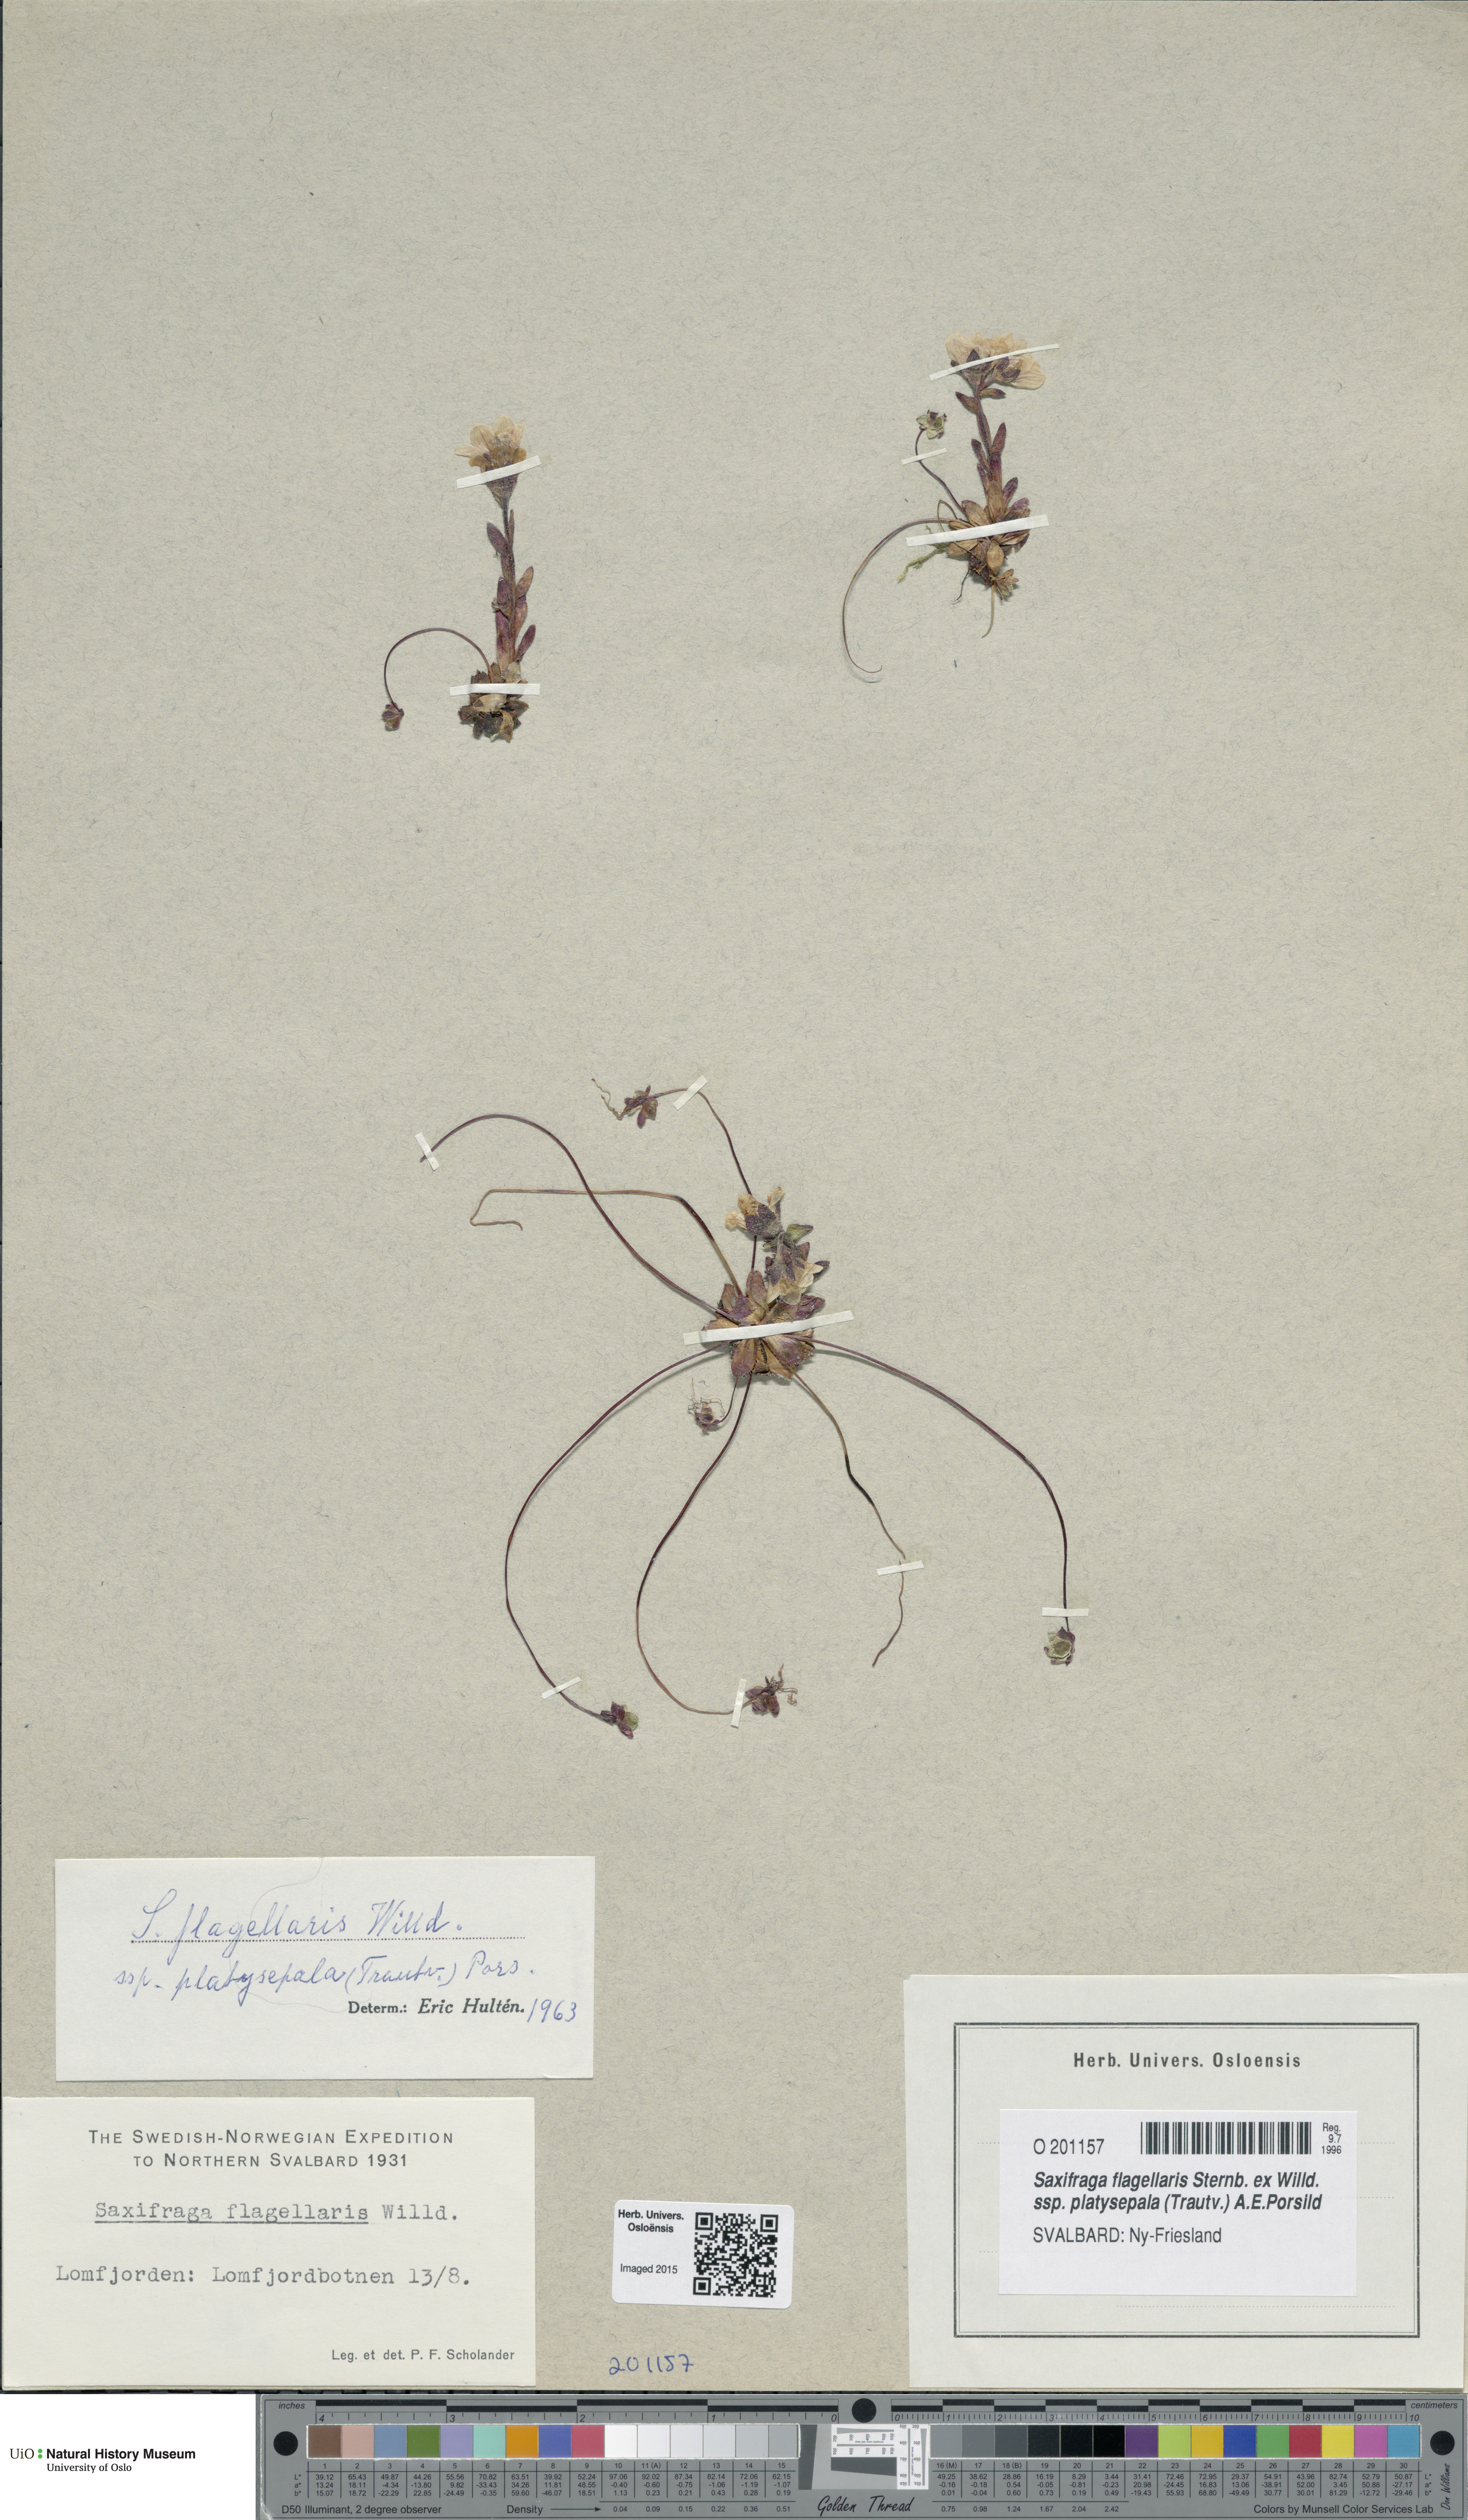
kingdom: Plantae
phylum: Tracheophyta
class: Magnoliopsida
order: Saxifragales
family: Saxifragaceae
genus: Saxifraga
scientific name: Saxifraga platysepala
